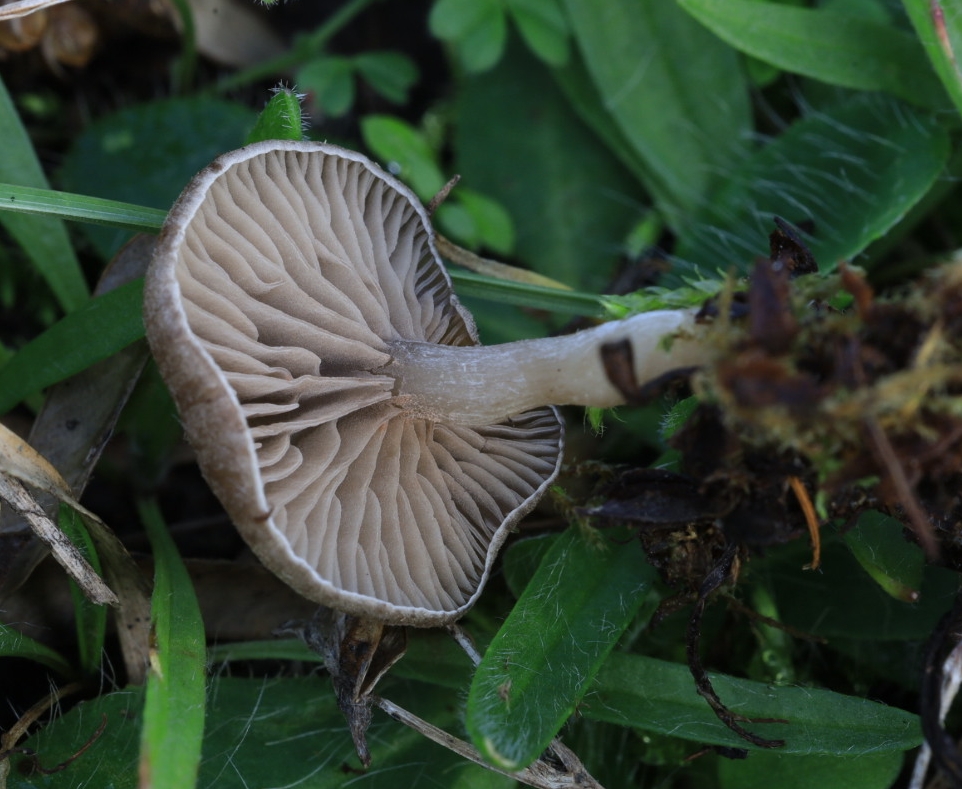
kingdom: Fungi
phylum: Basidiomycota
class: Agaricomycetes
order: Agaricales
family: Entolomataceae
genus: Entoloma
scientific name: Entoloma undatum
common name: bæltet rødblad
